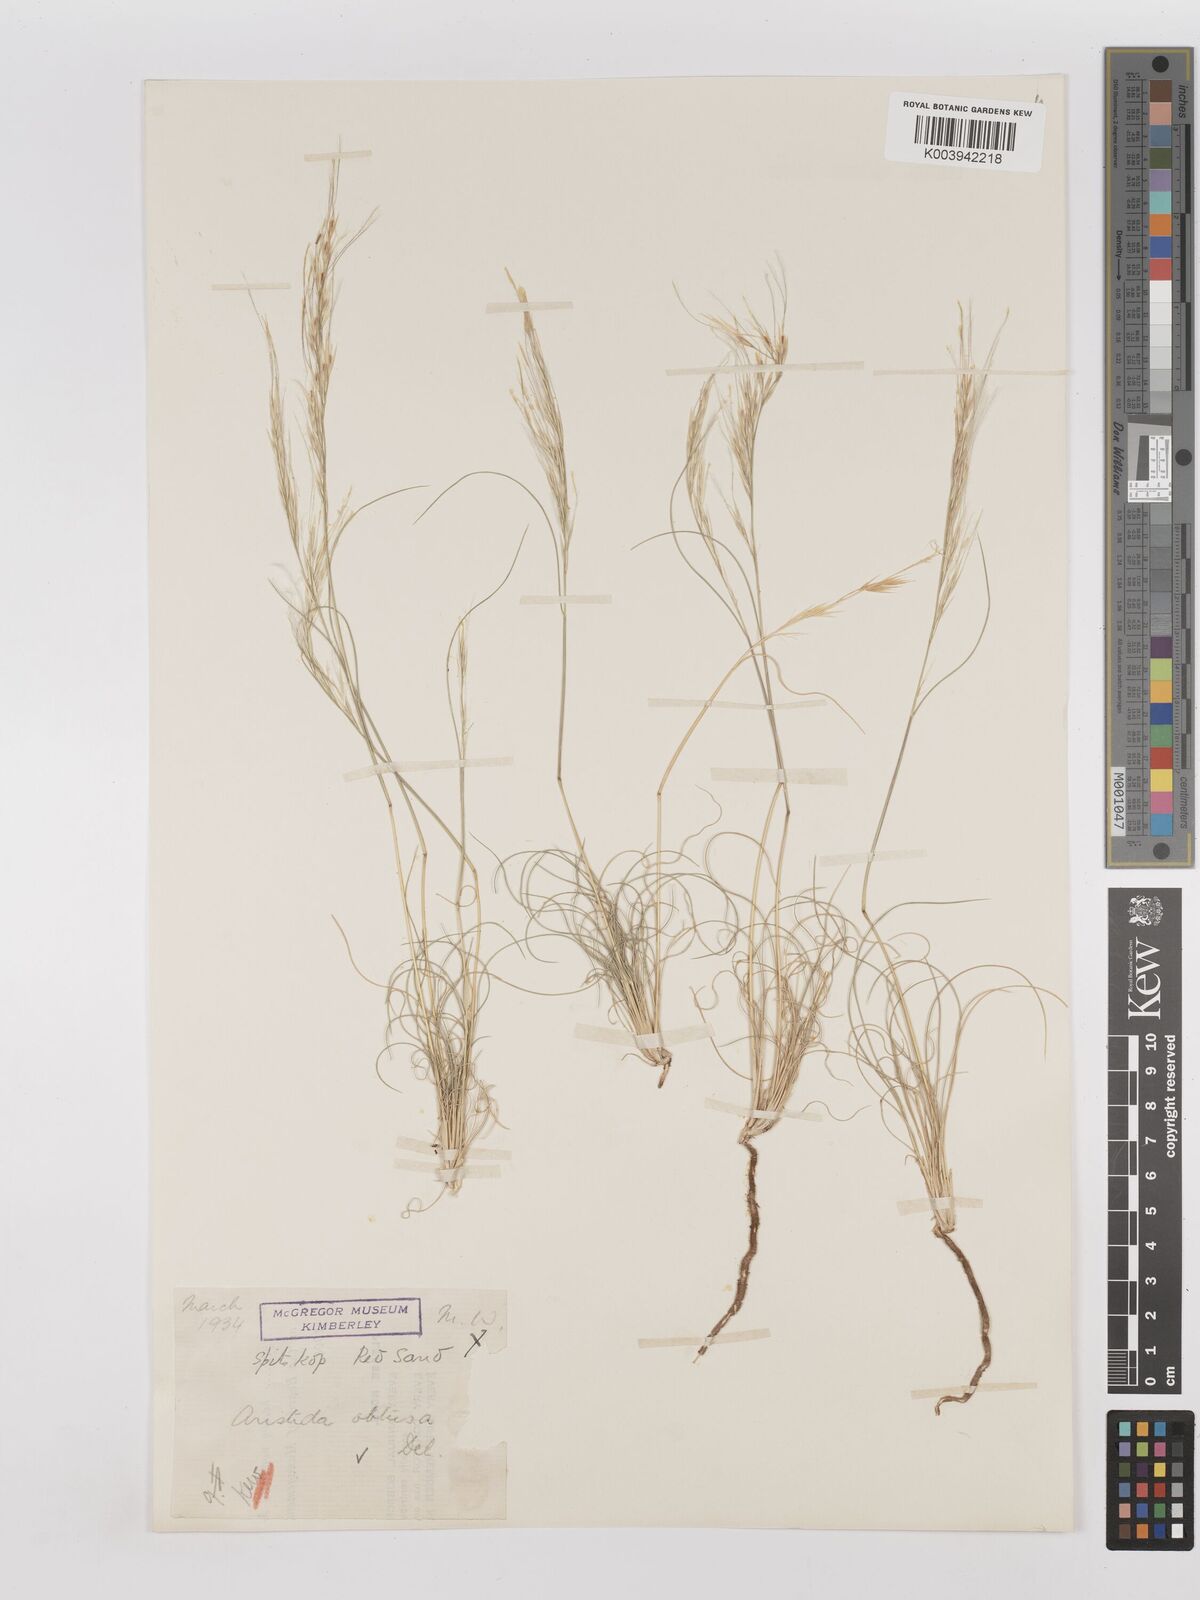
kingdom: Plantae
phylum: Tracheophyta
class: Liliopsida
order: Poales
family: Poaceae
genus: Stipagrostis
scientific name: Stipagrostis obtusa
